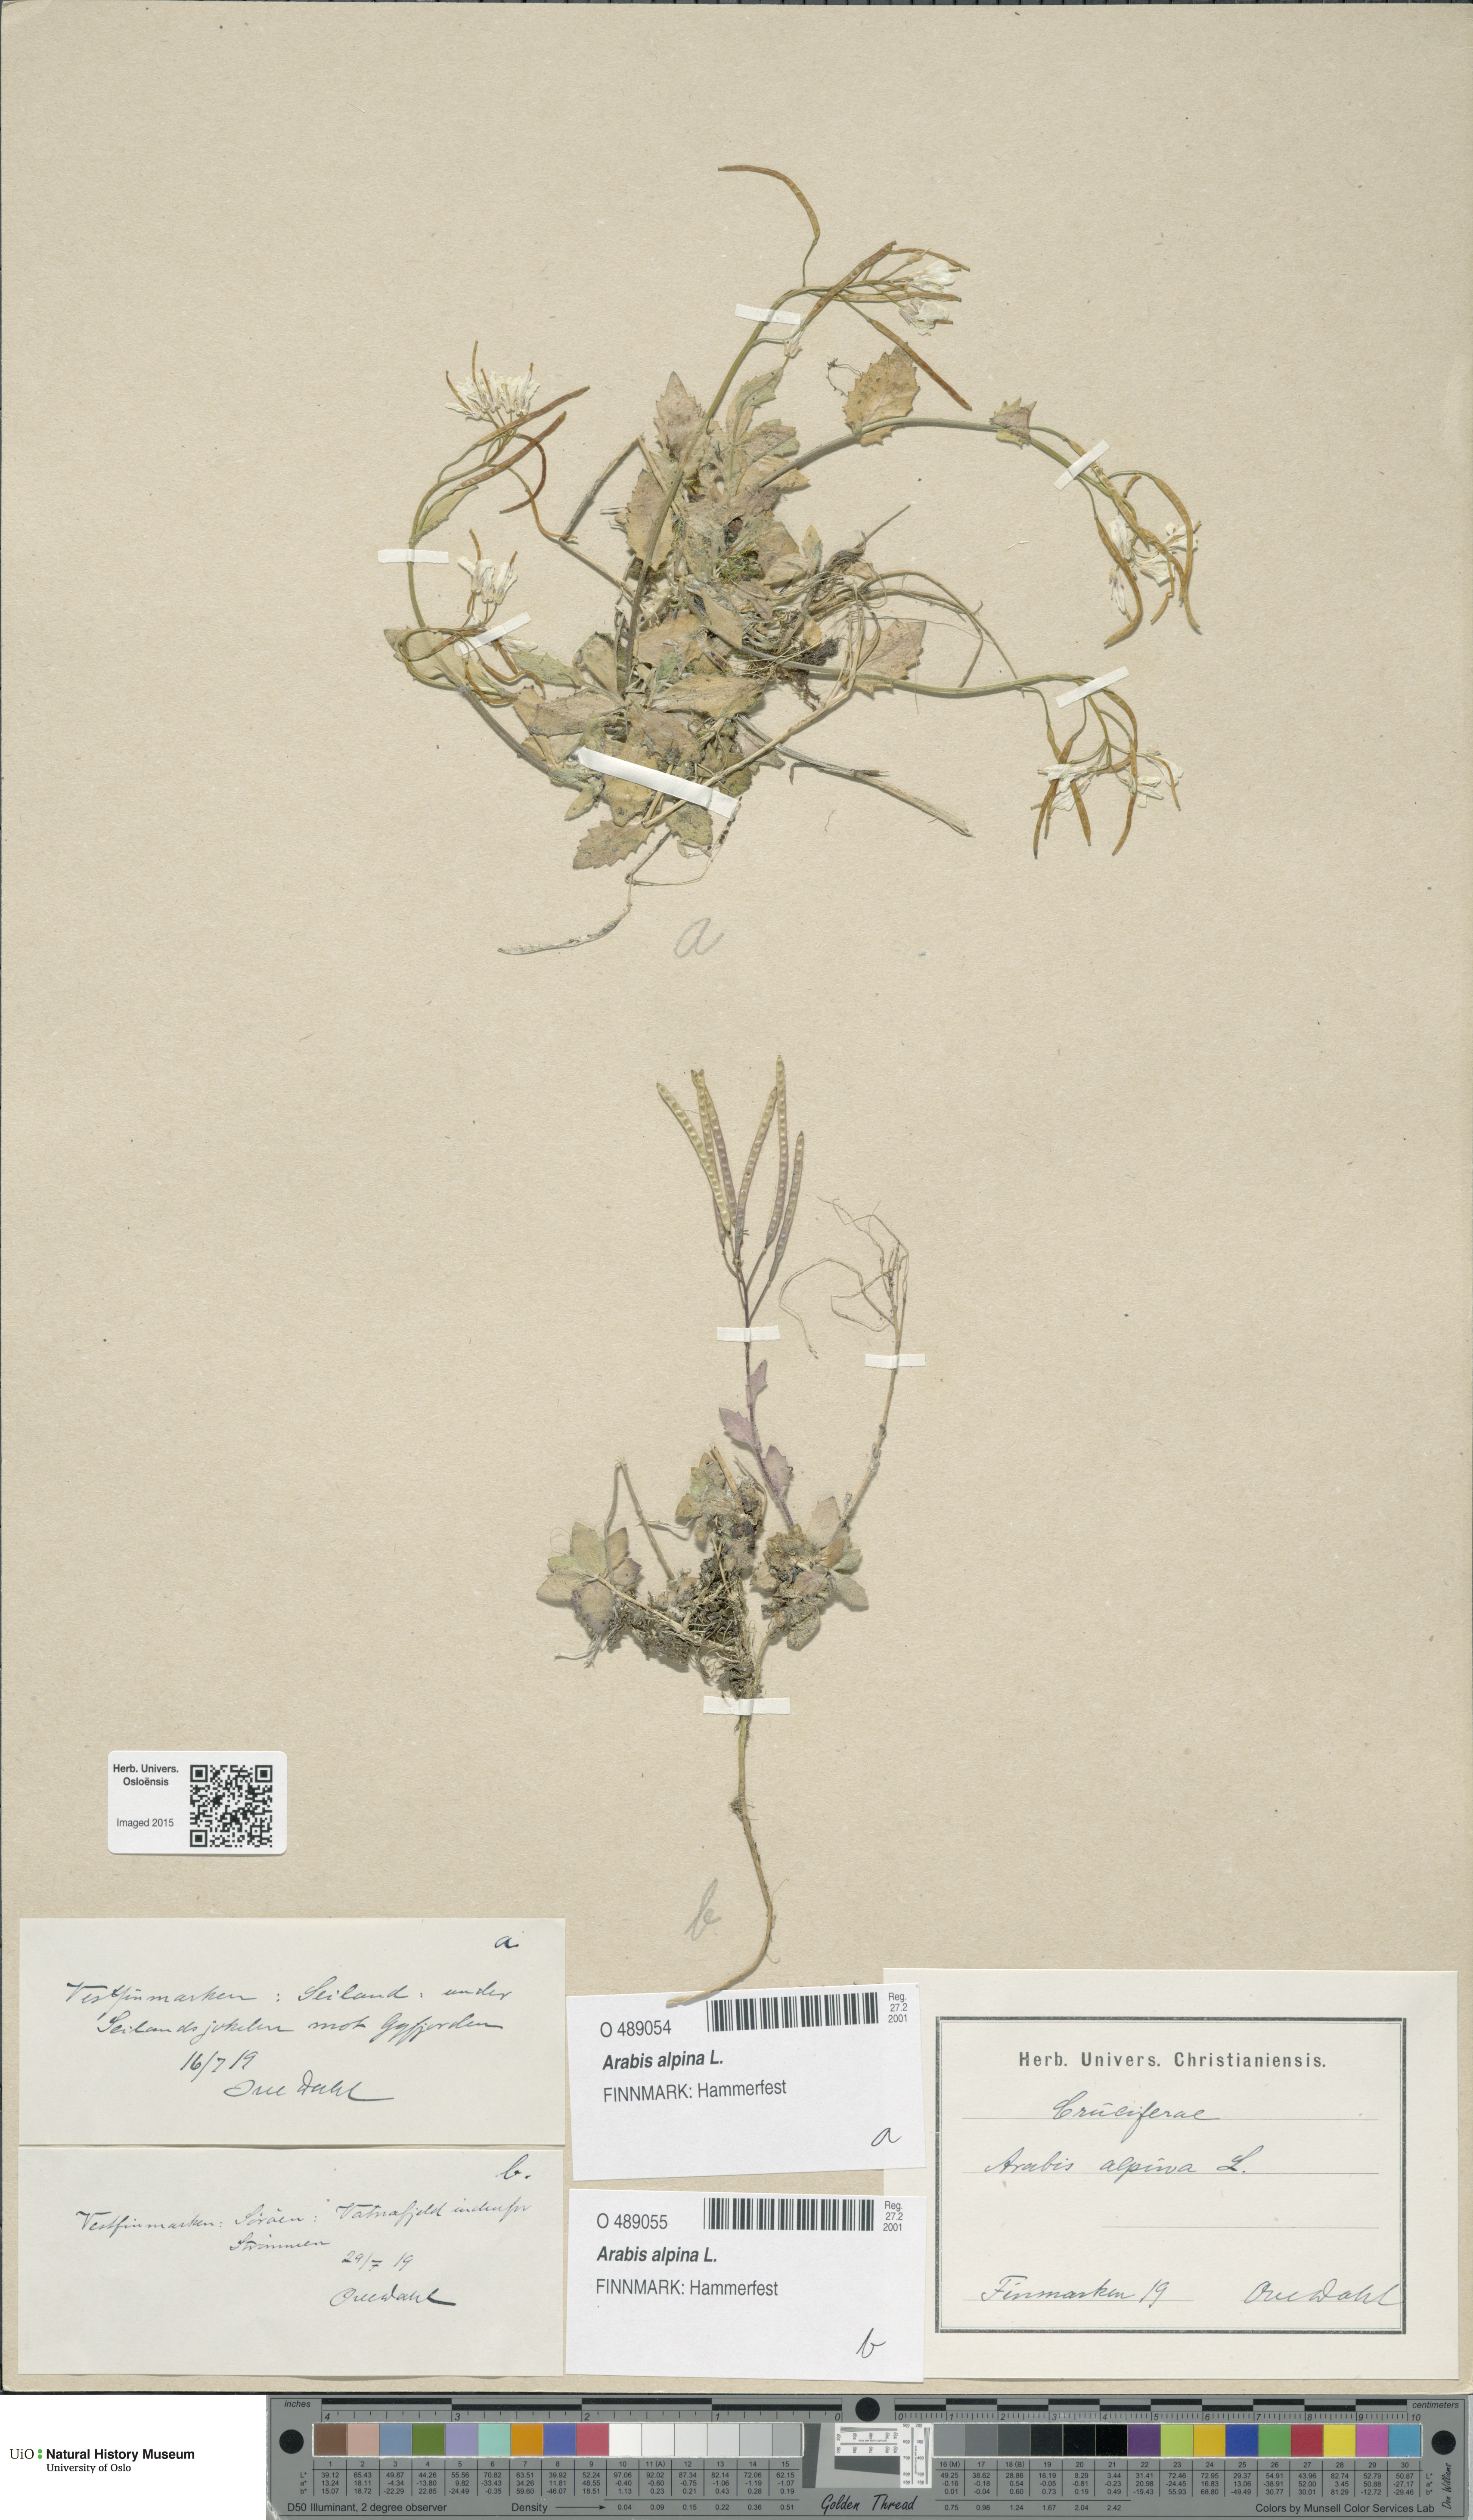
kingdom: Plantae
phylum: Tracheophyta
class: Magnoliopsida
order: Brassicales
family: Brassicaceae
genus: Arabis
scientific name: Arabis alpina
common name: Alpine rock-cress
